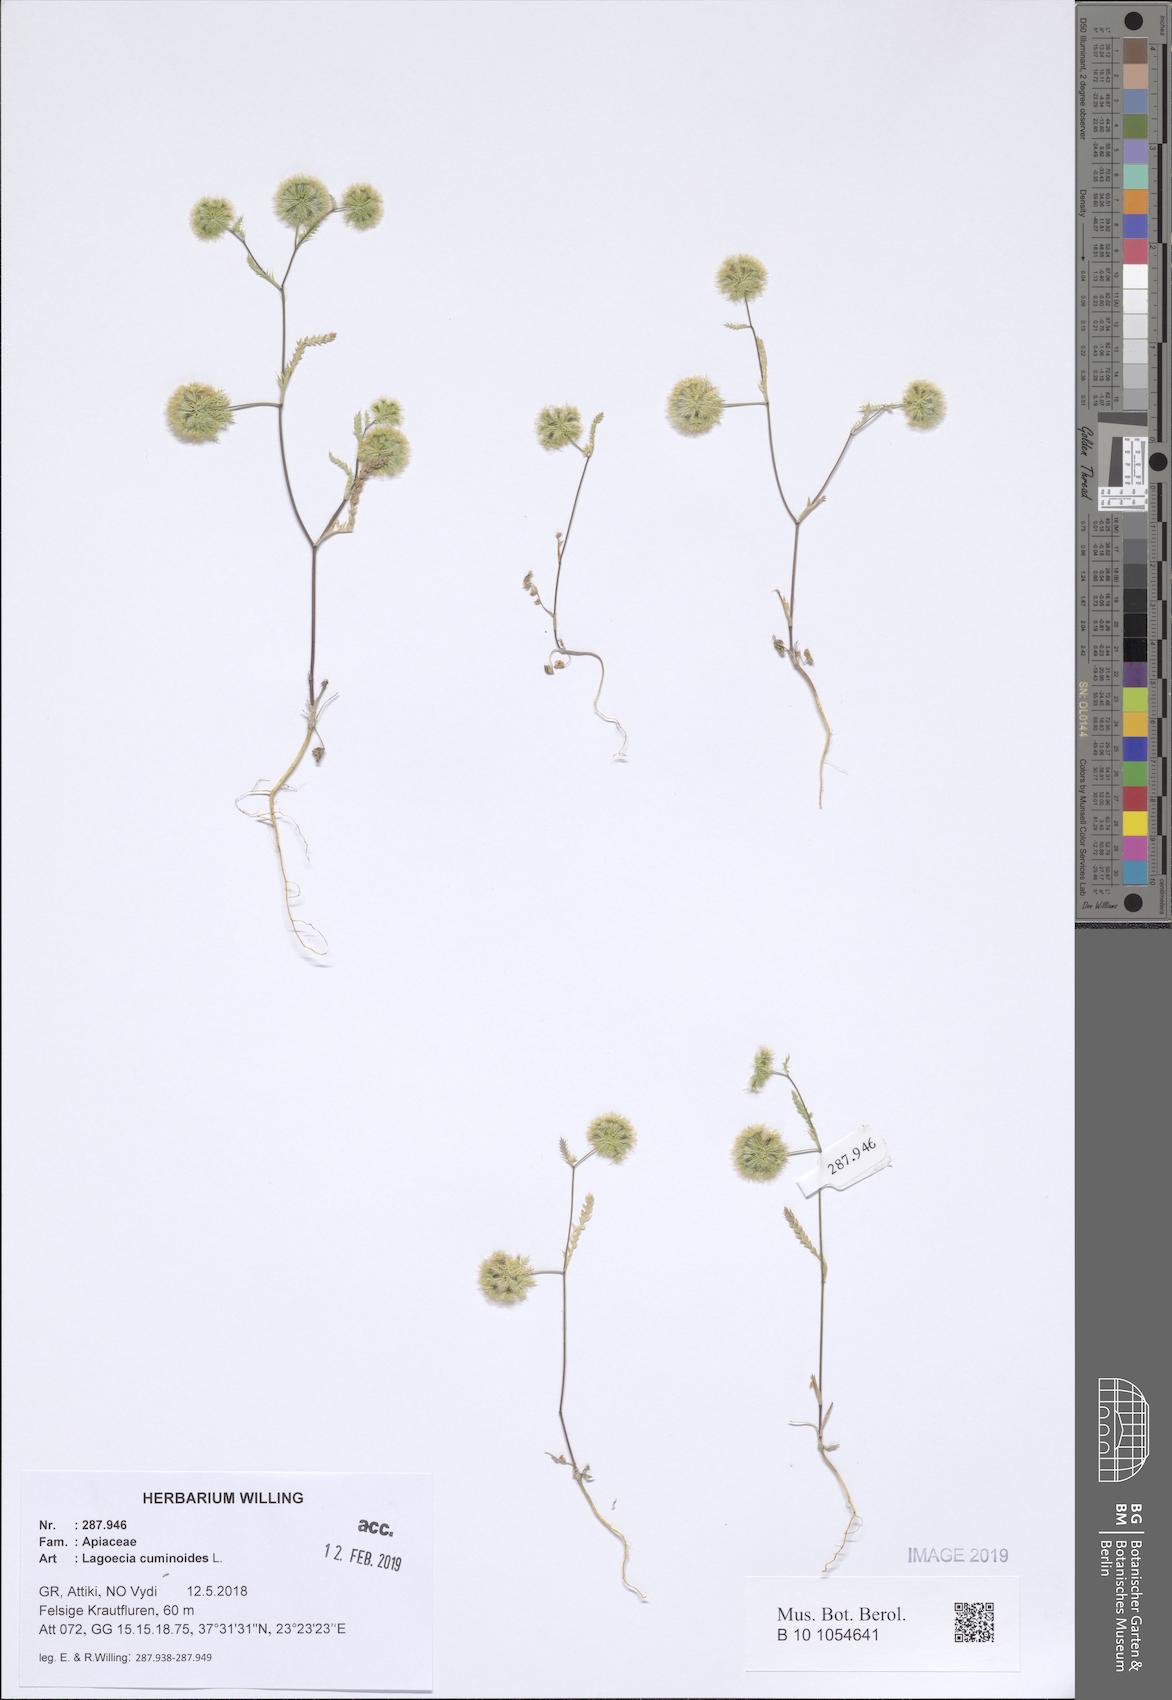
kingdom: Plantae
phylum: Tracheophyta
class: Magnoliopsida
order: Apiales
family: Apiaceae
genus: Lagoecia
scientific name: Lagoecia cuminoides
